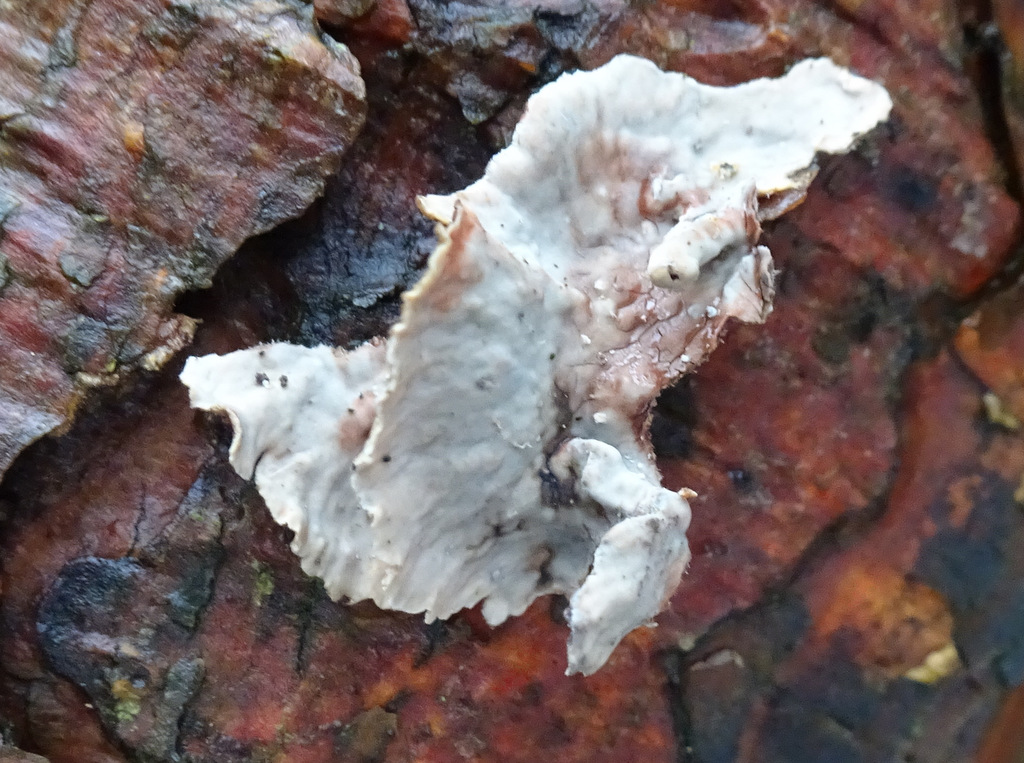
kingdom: Fungi
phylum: Basidiomycota
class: Agaricomycetes
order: Russulales
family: Stereaceae
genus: Stereum
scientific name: Stereum sanguinolentum
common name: blødende lædersvamp
